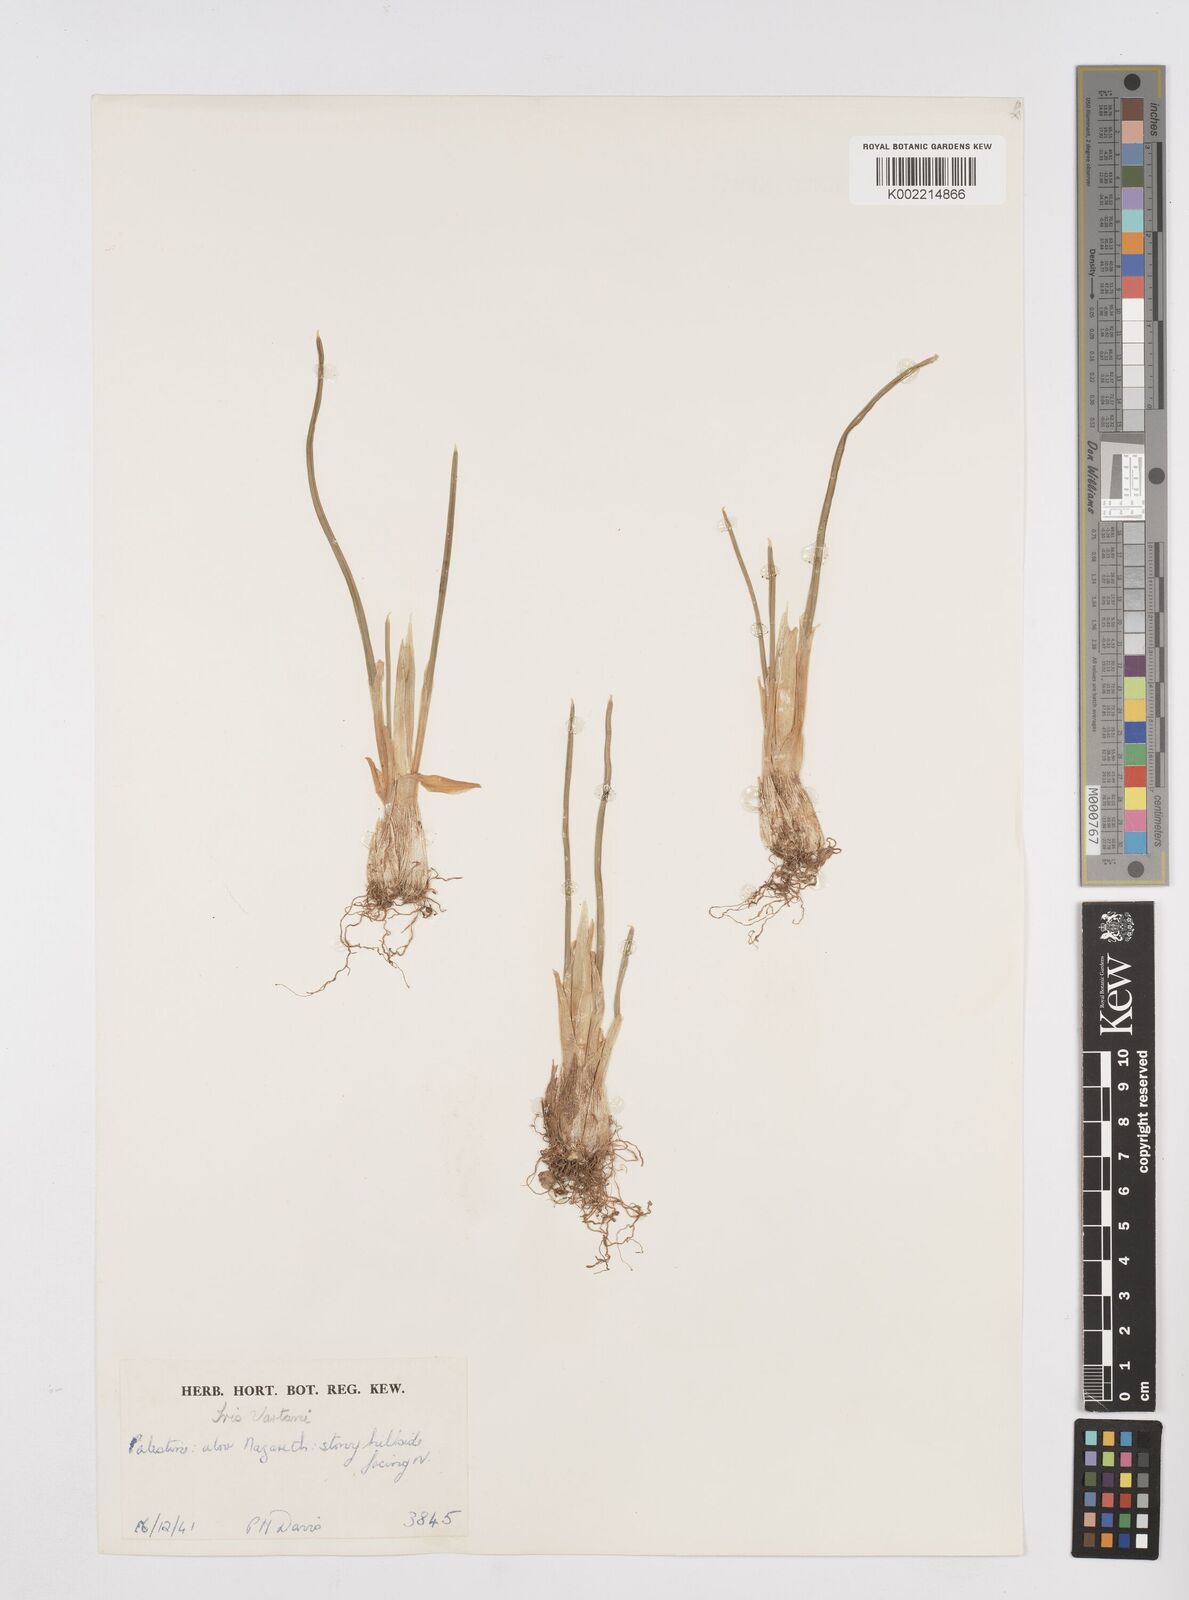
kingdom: Plantae
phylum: Tracheophyta
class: Liliopsida
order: Asparagales
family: Iridaceae
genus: Iris
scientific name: Iris vartanii
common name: Vartanii iris
